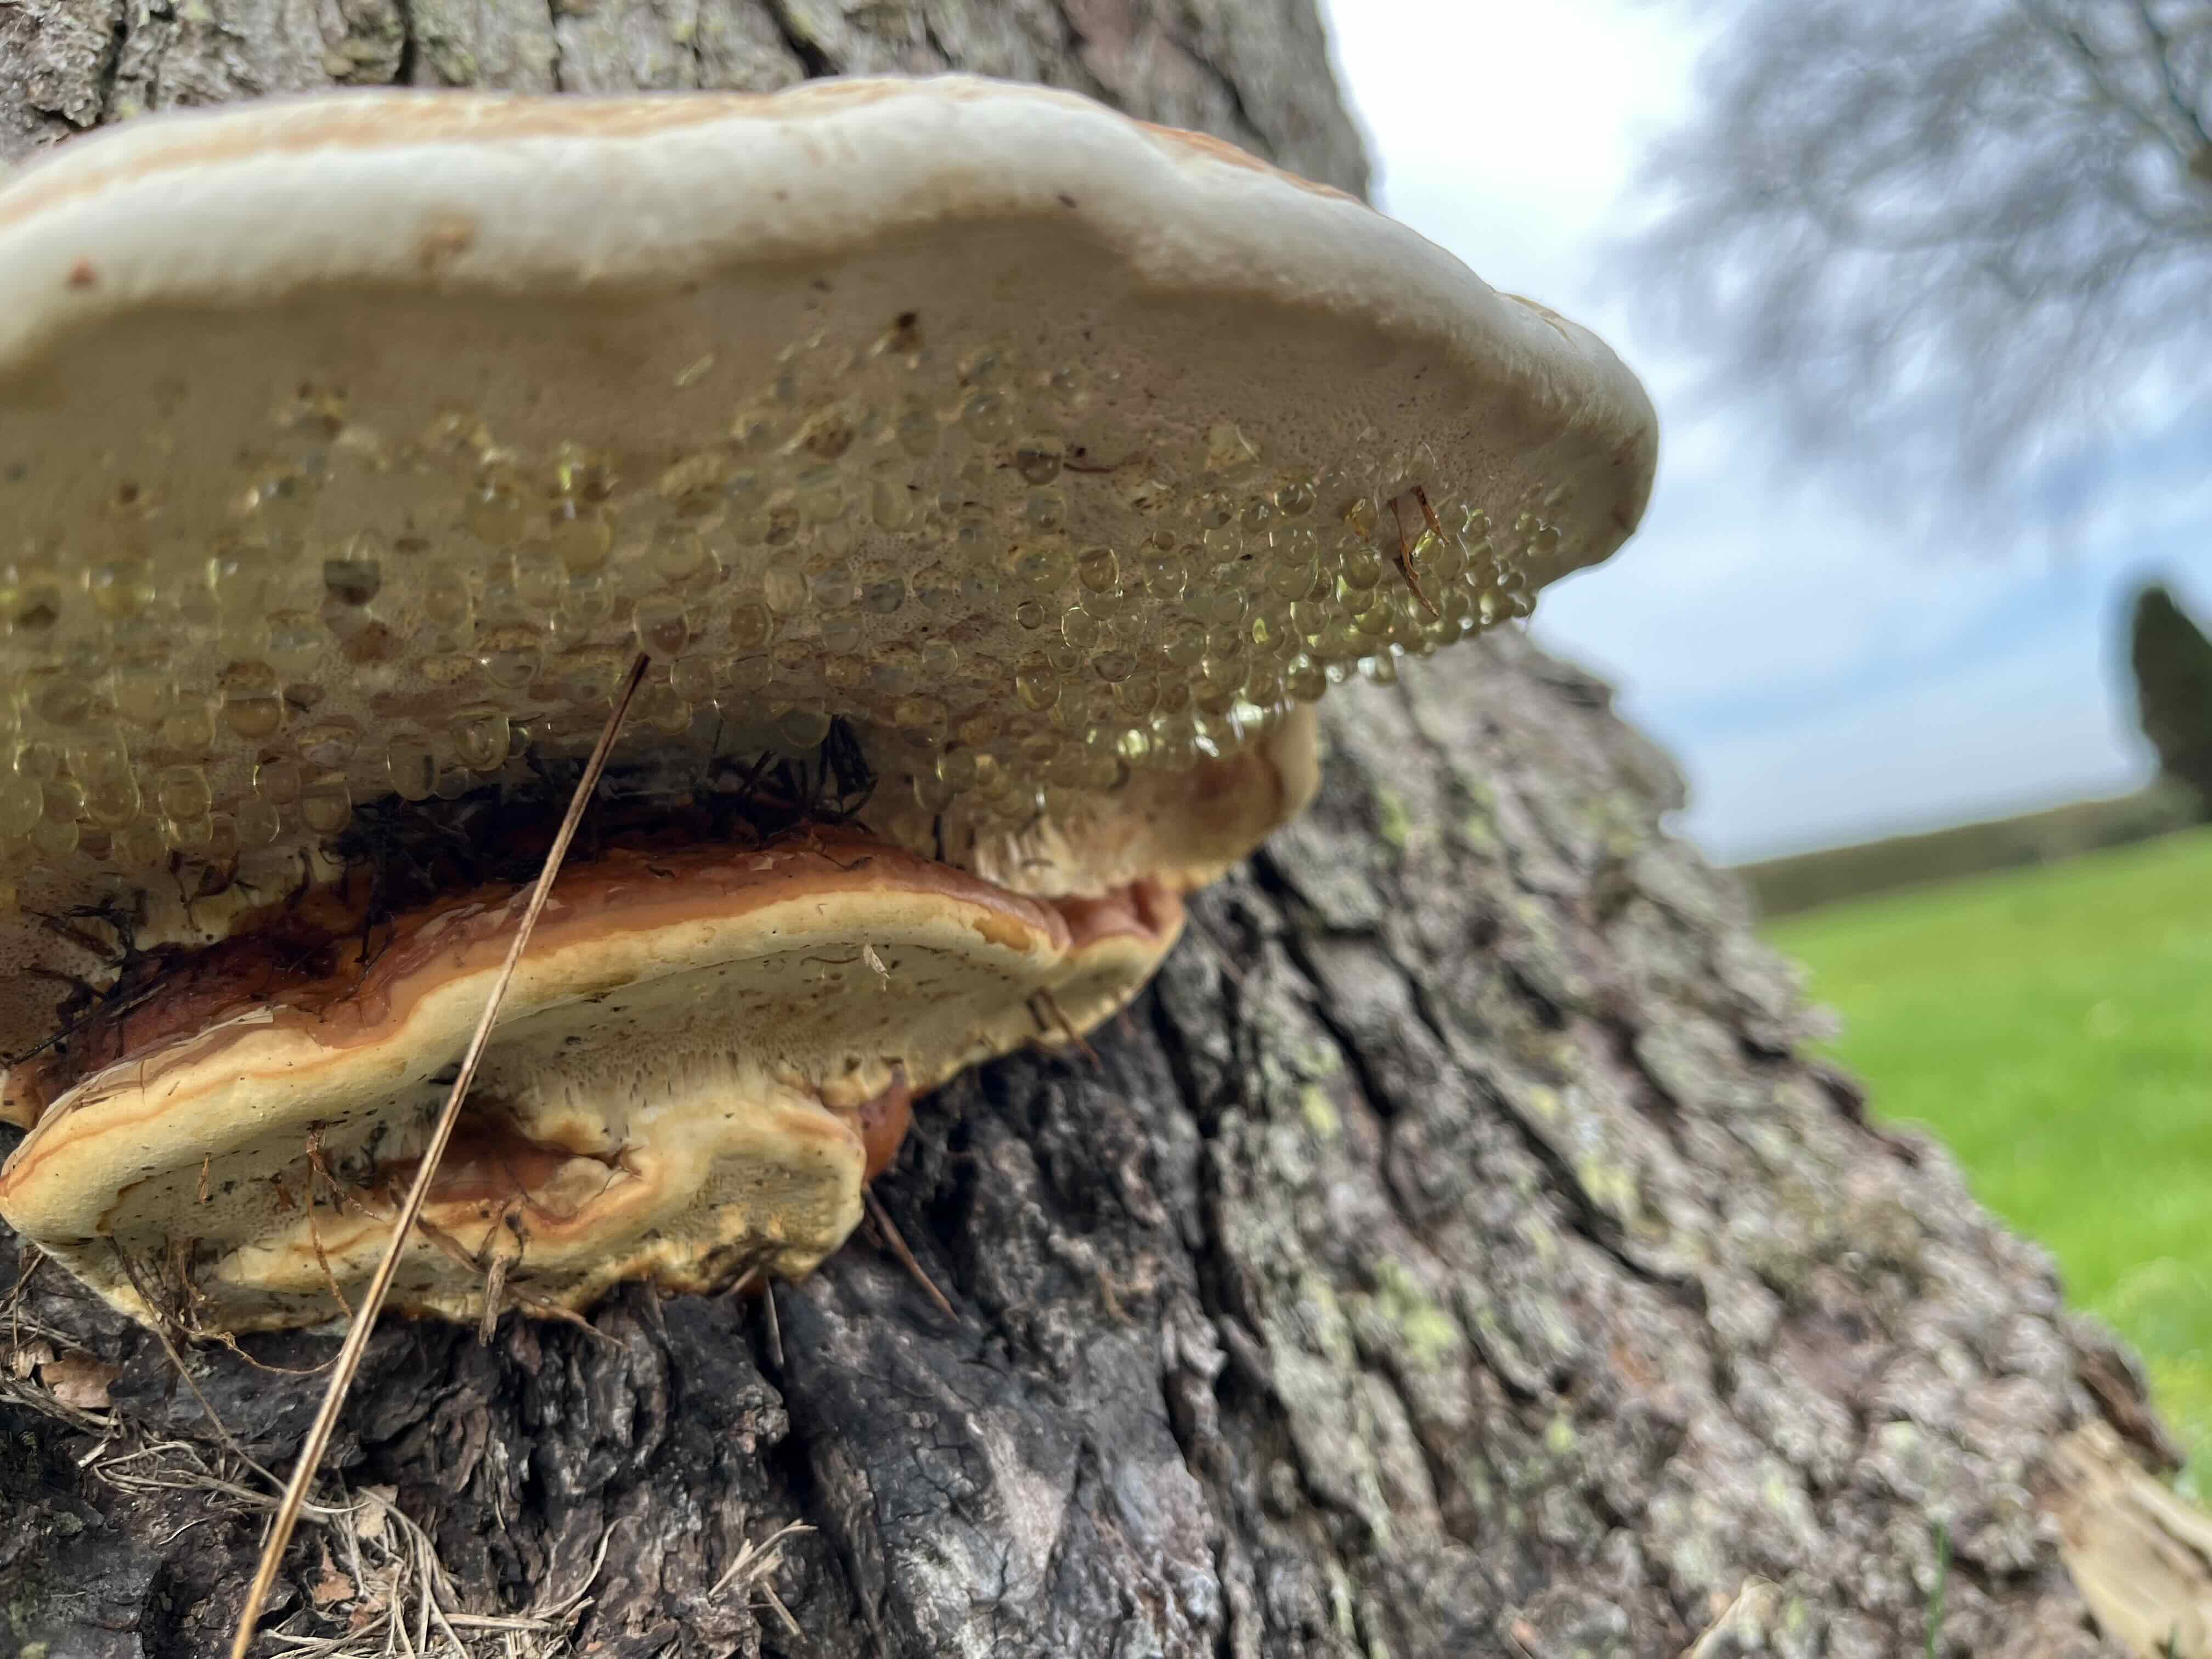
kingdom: Fungi
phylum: Basidiomycota
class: Agaricomycetes
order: Polyporales
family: Fomitopsidaceae
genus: Fomitopsis
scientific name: Fomitopsis pinicola
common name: randbæltet hovporesvamp
